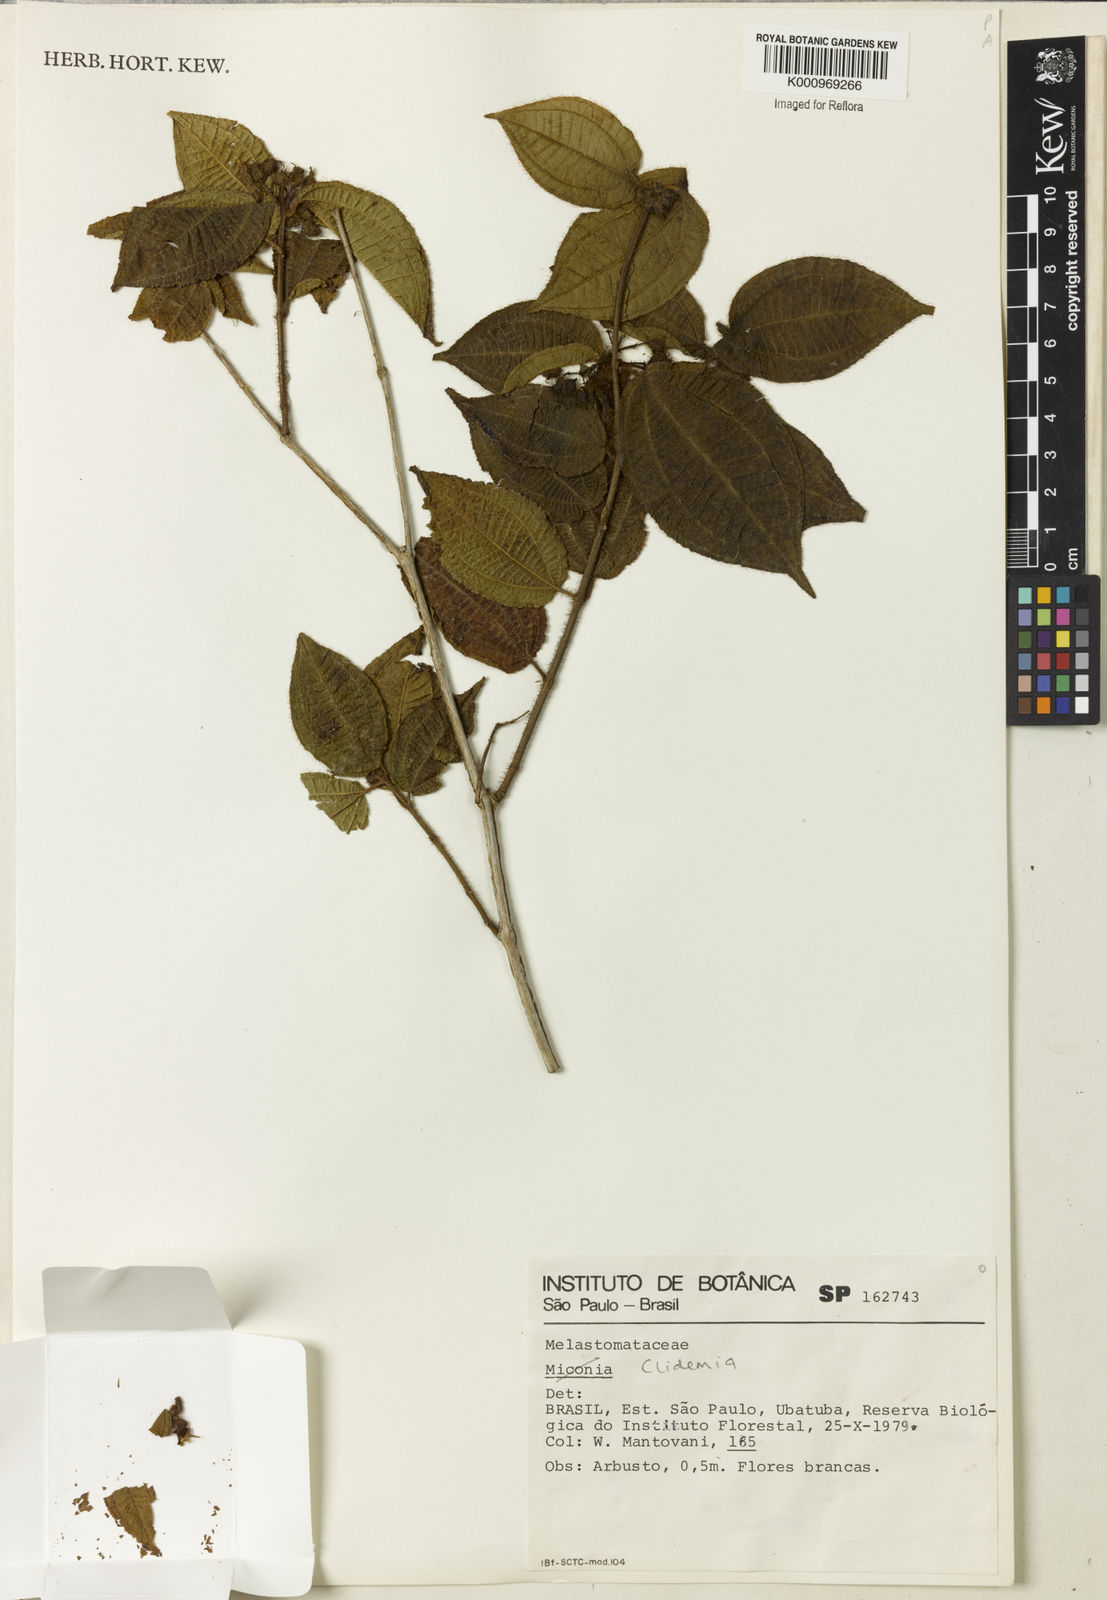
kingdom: Plantae
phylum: Tracheophyta
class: Magnoliopsida
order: Myrtales
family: Melastomataceae
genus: Miconia
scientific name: Miconia
